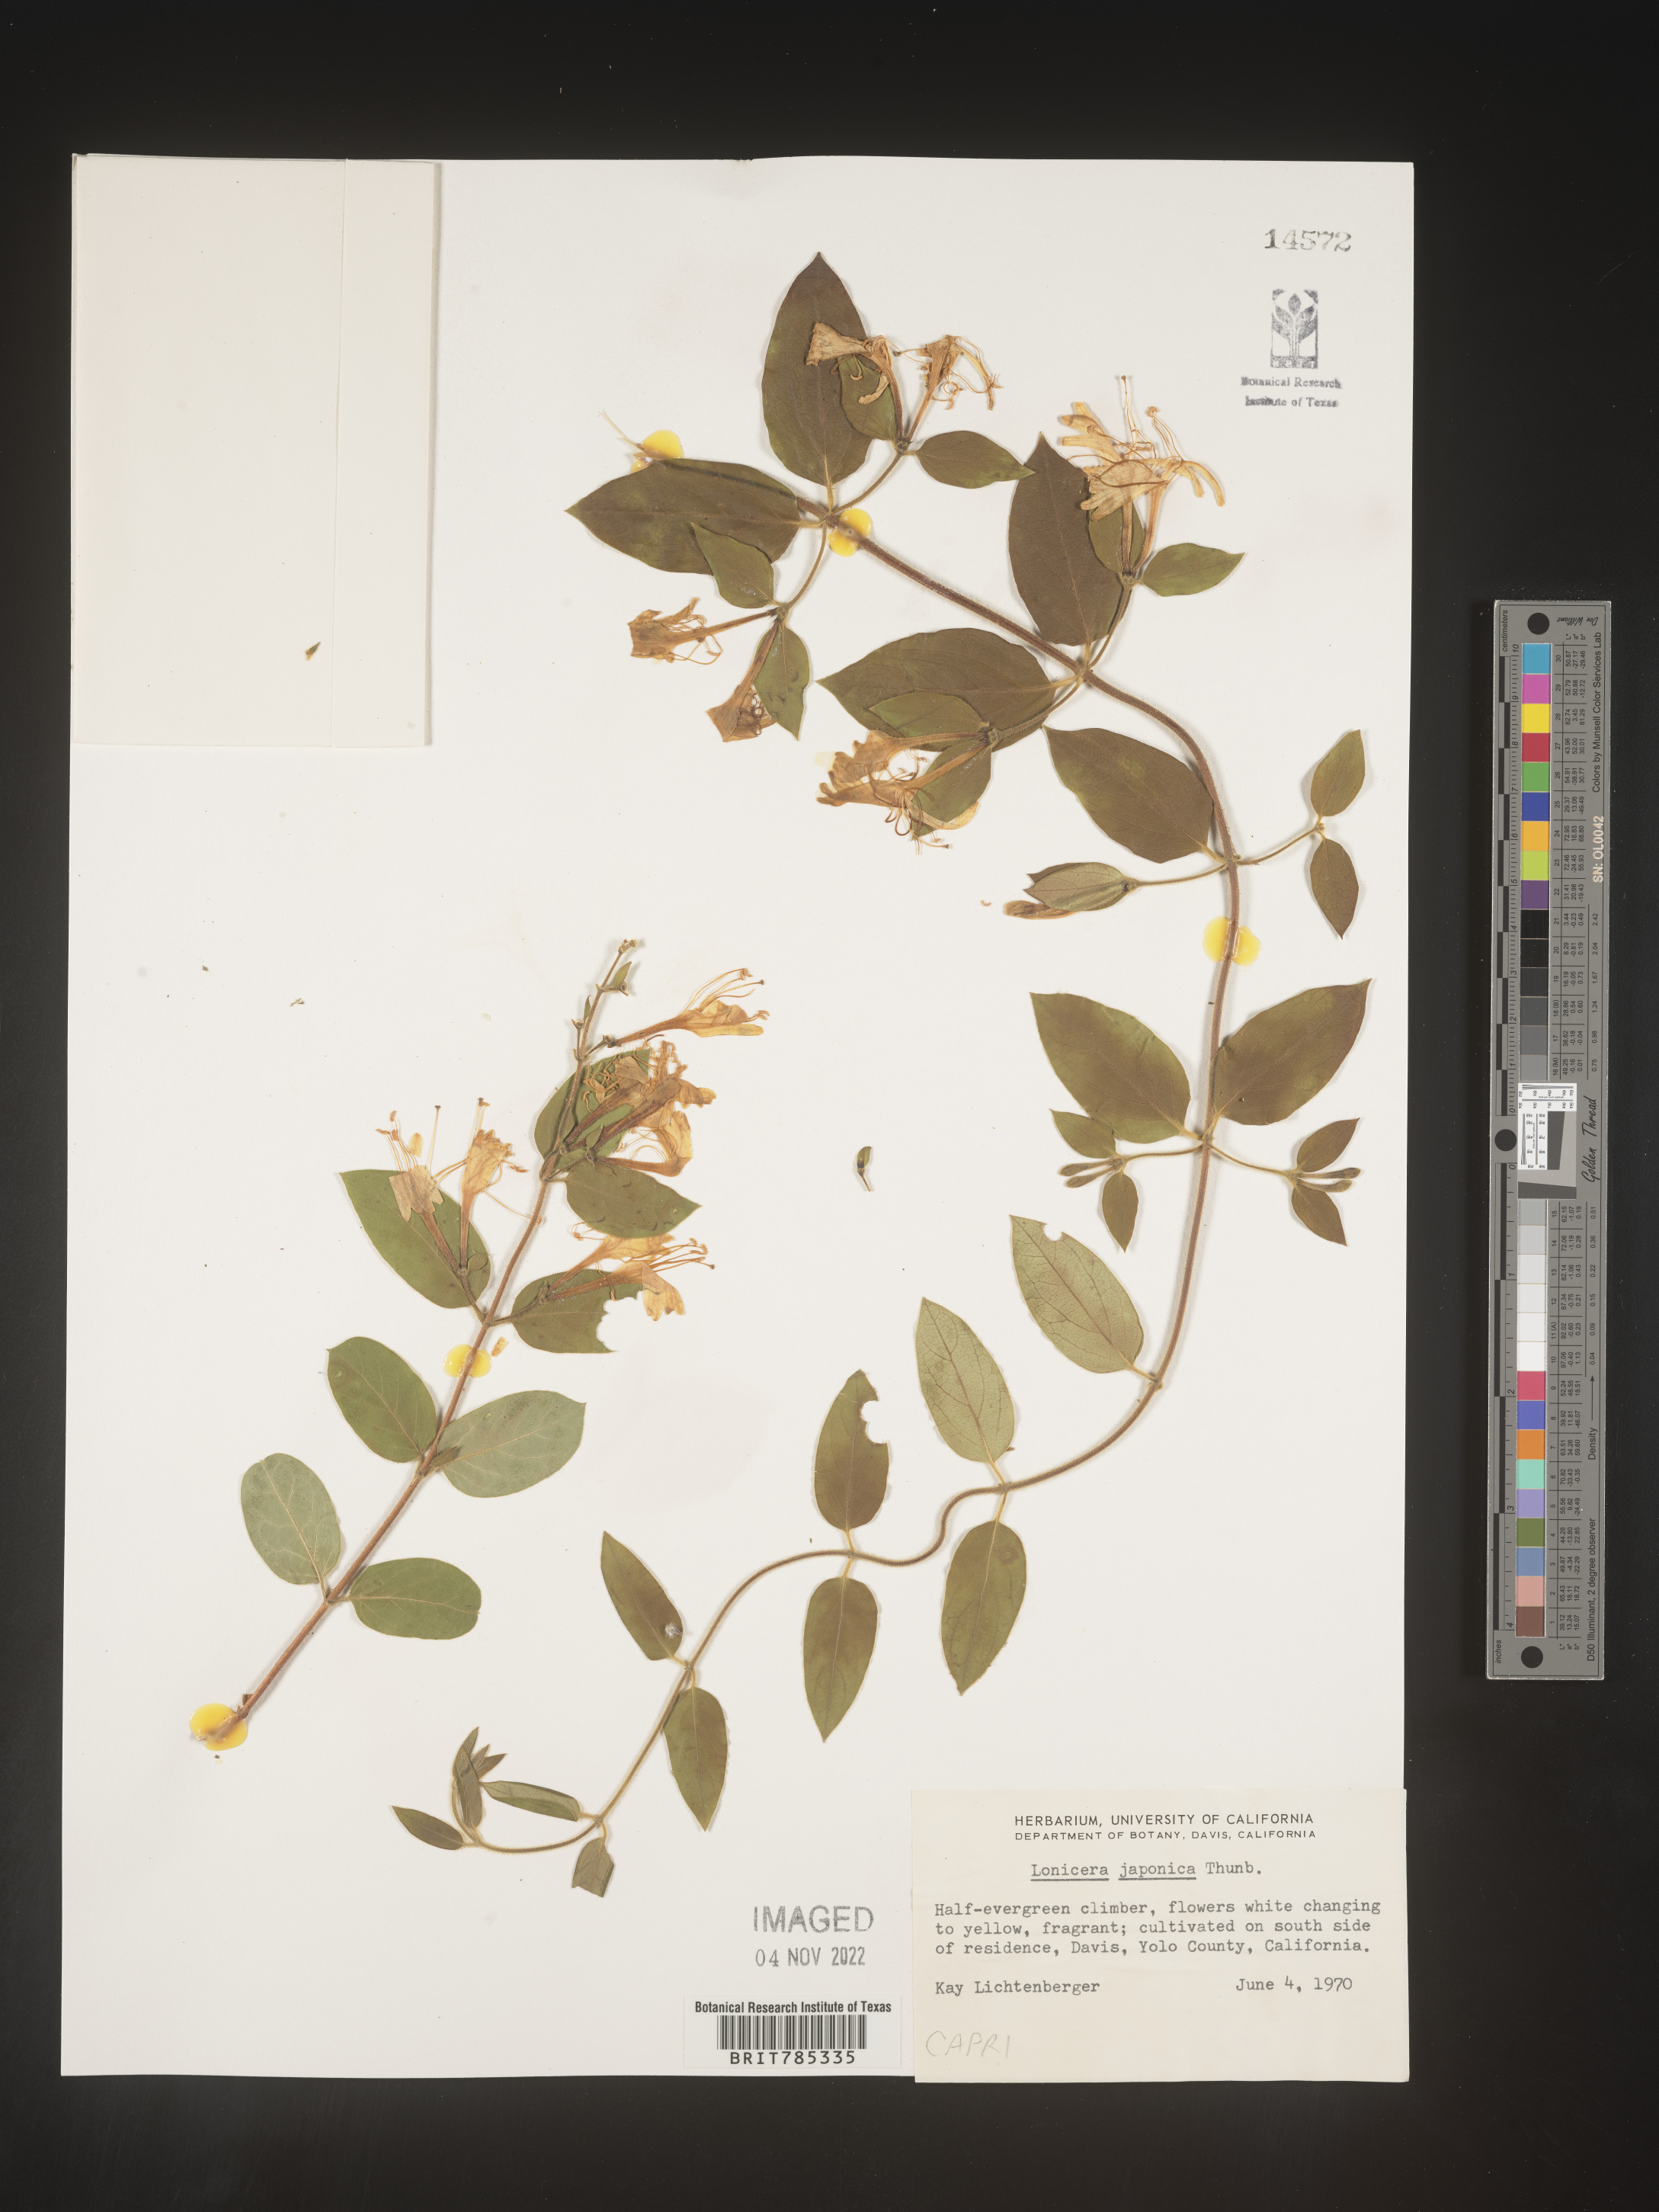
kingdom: Plantae
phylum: Tracheophyta
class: Magnoliopsida
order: Dipsacales
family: Caprifoliaceae
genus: Lonicera
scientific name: Lonicera japonica
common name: Japanese honeysuckle
